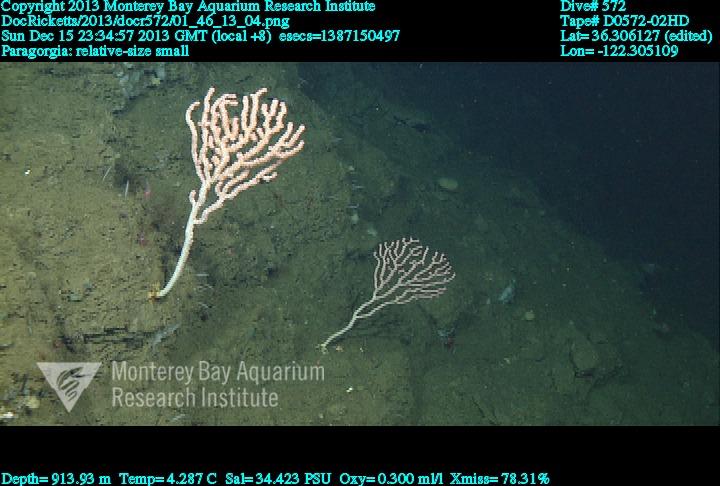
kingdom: Animalia
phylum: Cnidaria
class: Anthozoa
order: Scleralcyonacea
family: Coralliidae
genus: Sibogagorgia
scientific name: Sibogagorgia cauliflora
